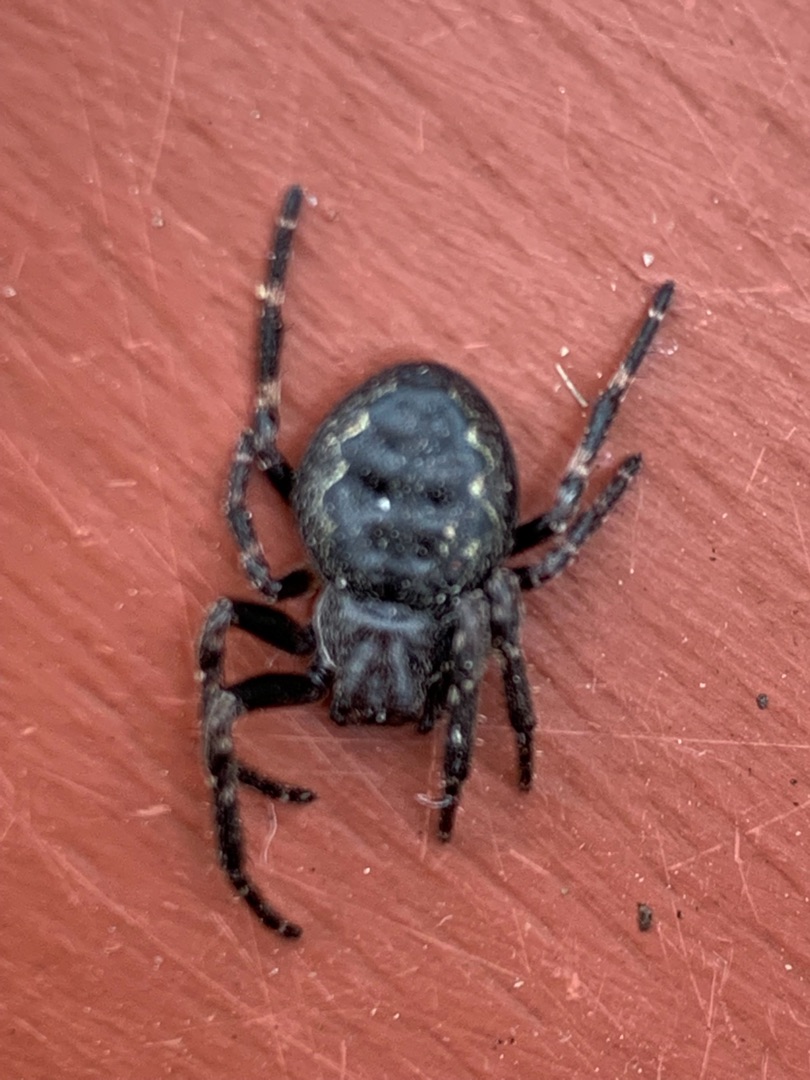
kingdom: Animalia
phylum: Arthropoda
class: Arachnida
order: Araneae
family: Araneidae
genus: Nuctenea
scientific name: Nuctenea umbratica
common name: Flad hjulspinder
